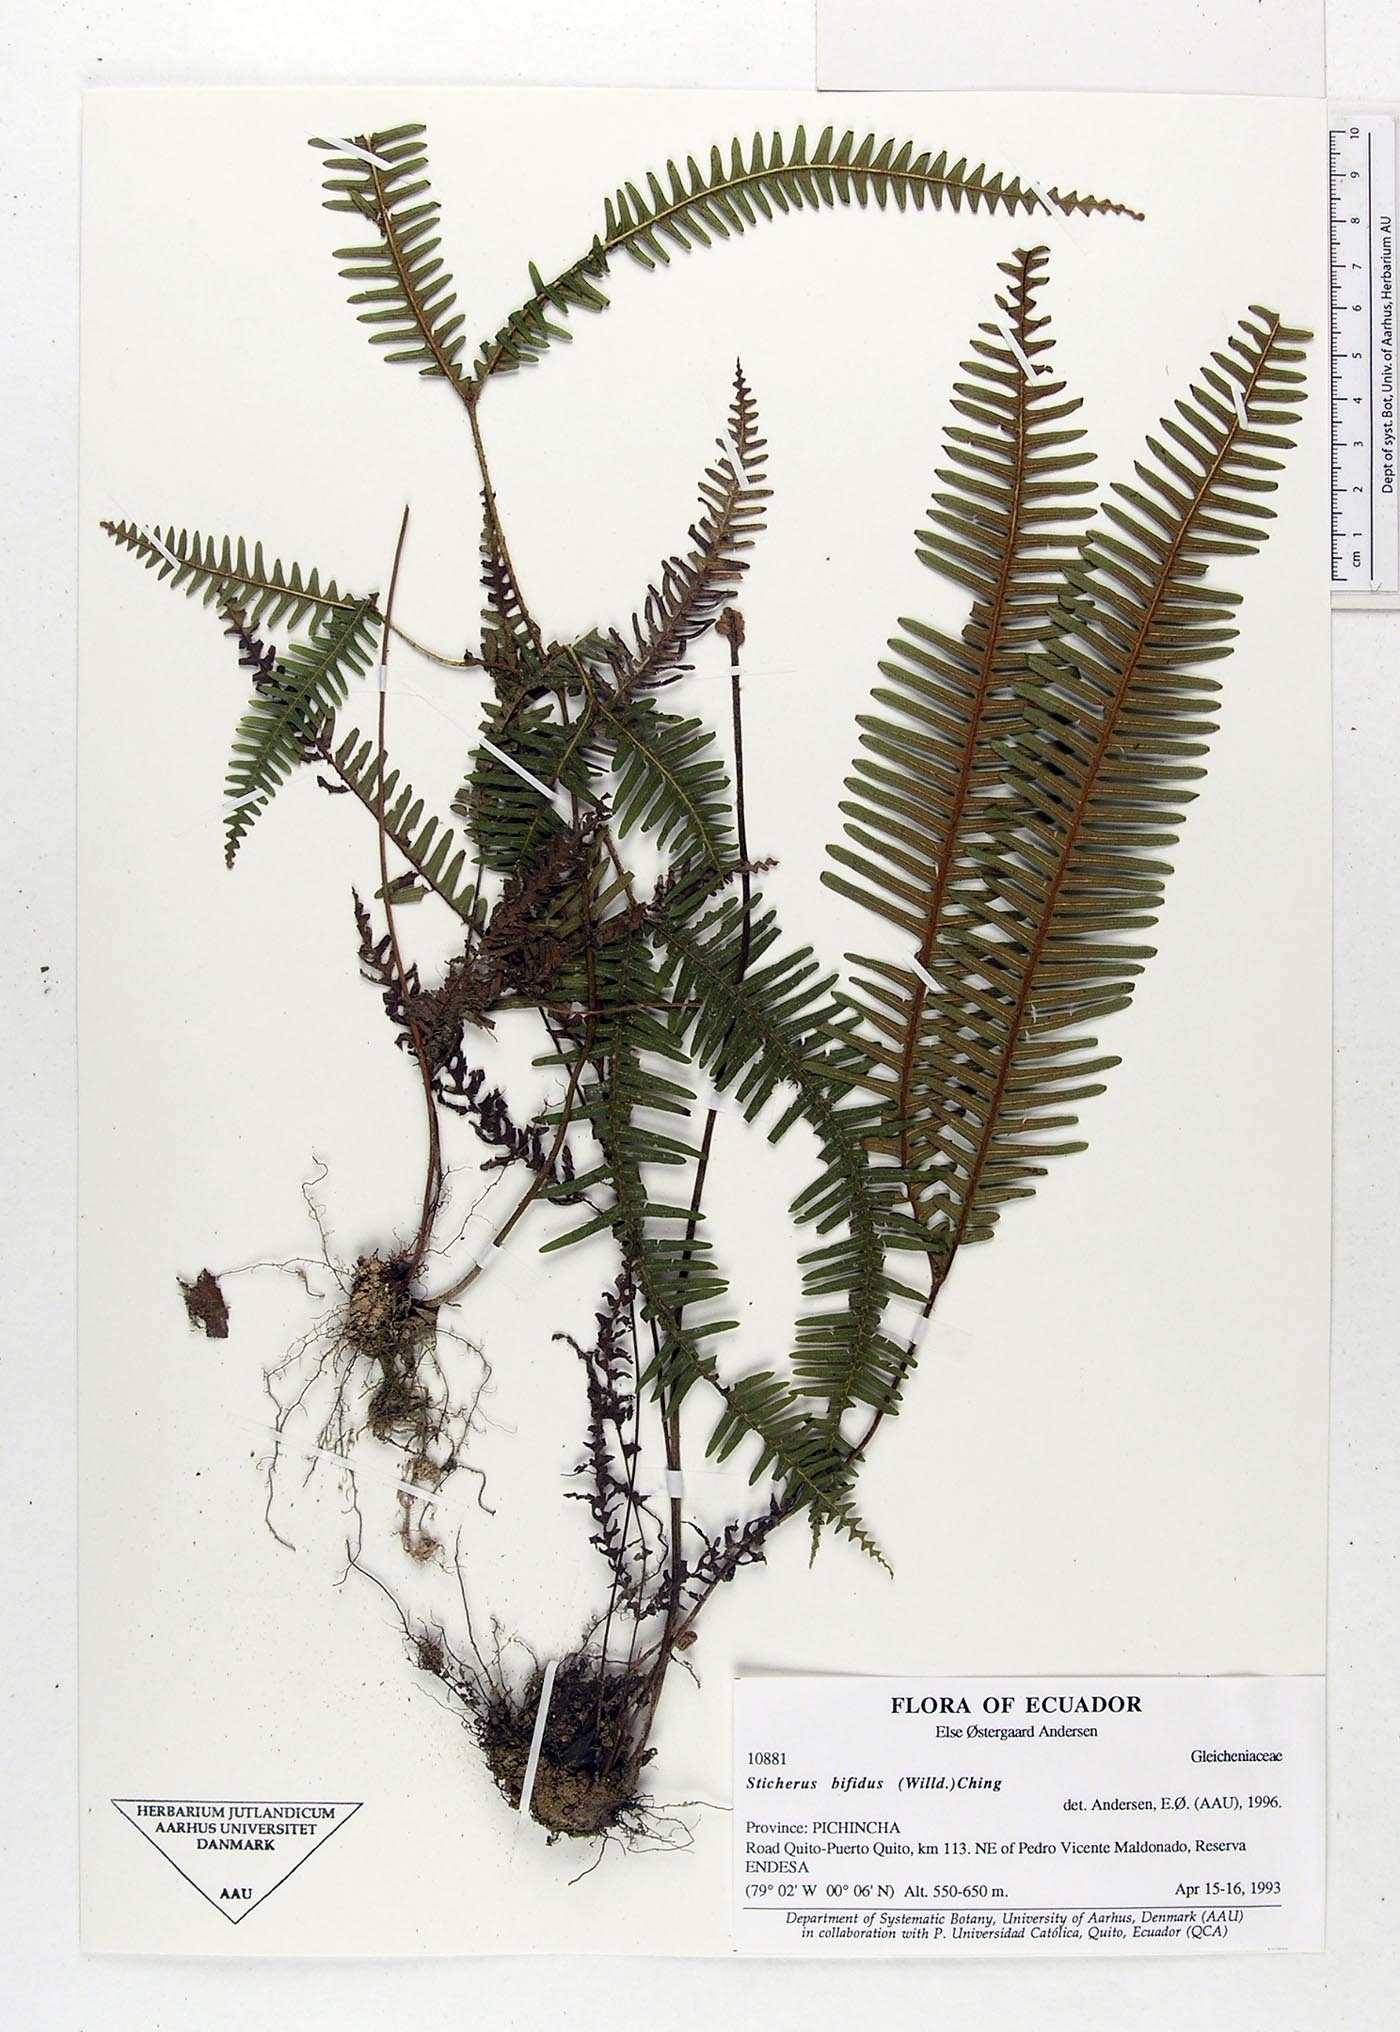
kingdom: Plantae
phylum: Tracheophyta
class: Polypodiopsida
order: Gleicheniales
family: Gleicheniaceae
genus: Sticherus
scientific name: Sticherus bifidus
